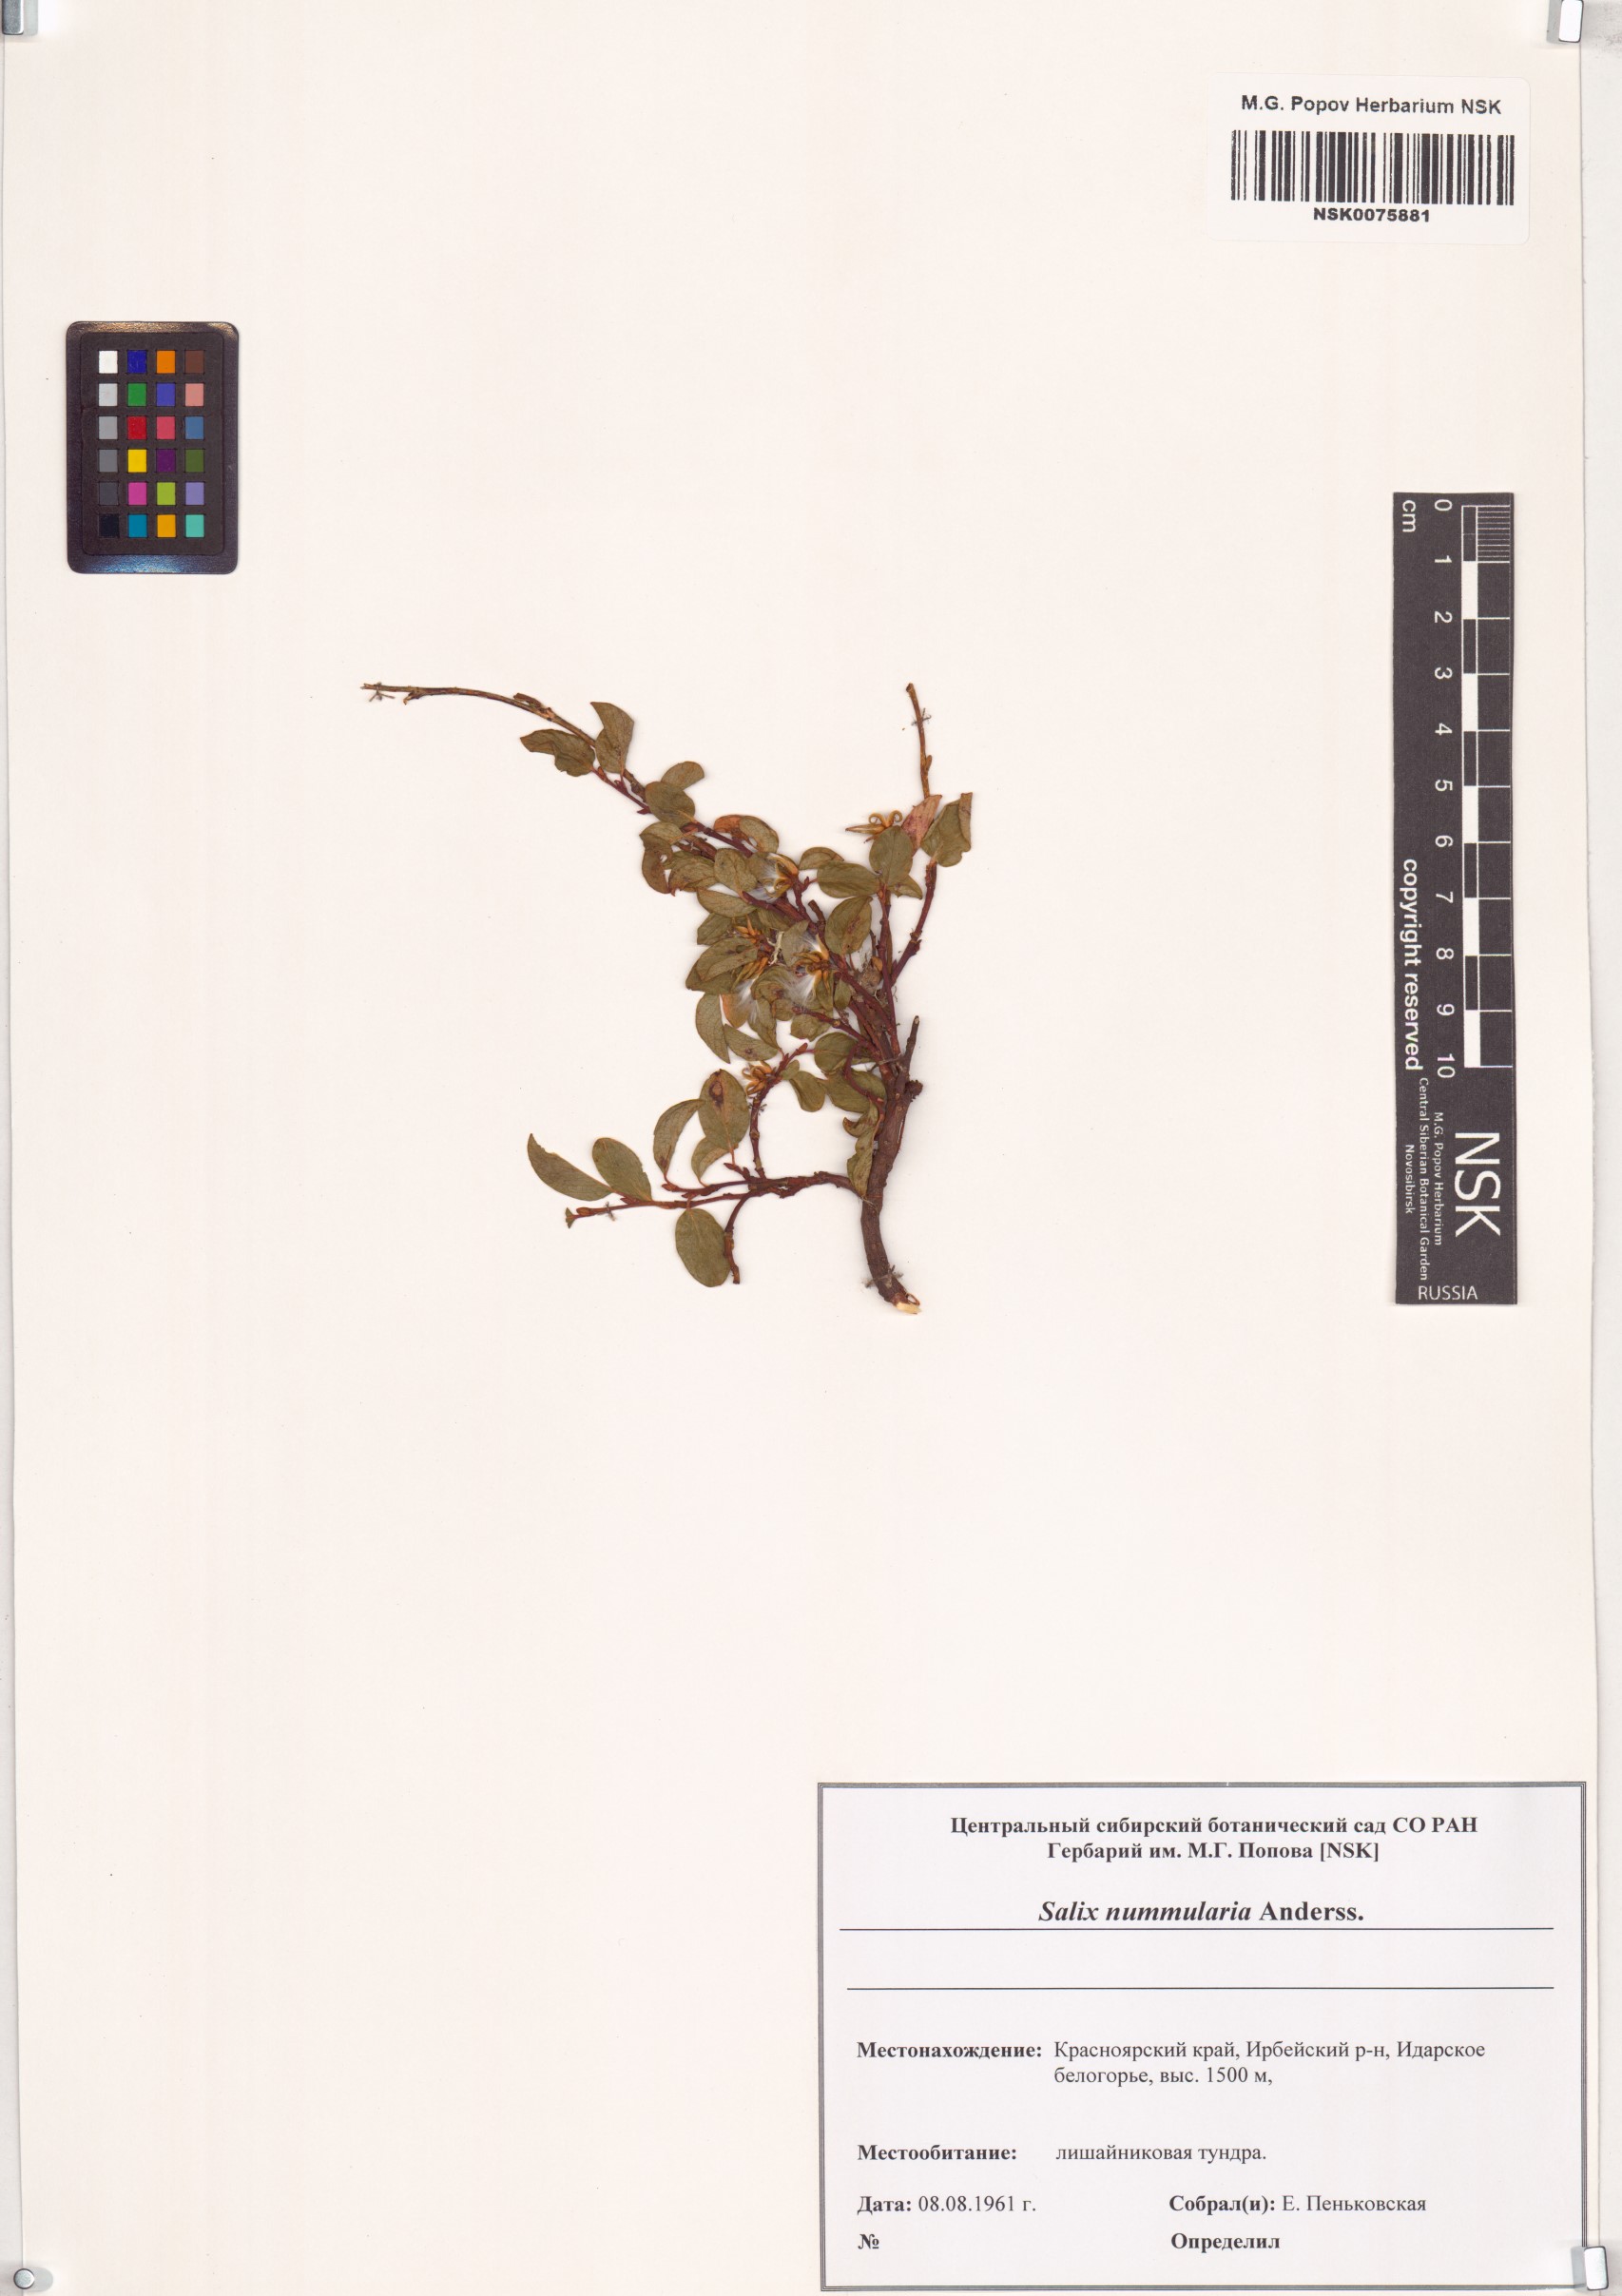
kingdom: Plantae
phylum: Tracheophyta
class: Magnoliopsida
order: Malpighiales
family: Salicaceae
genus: Salix
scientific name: Salix nummularia
